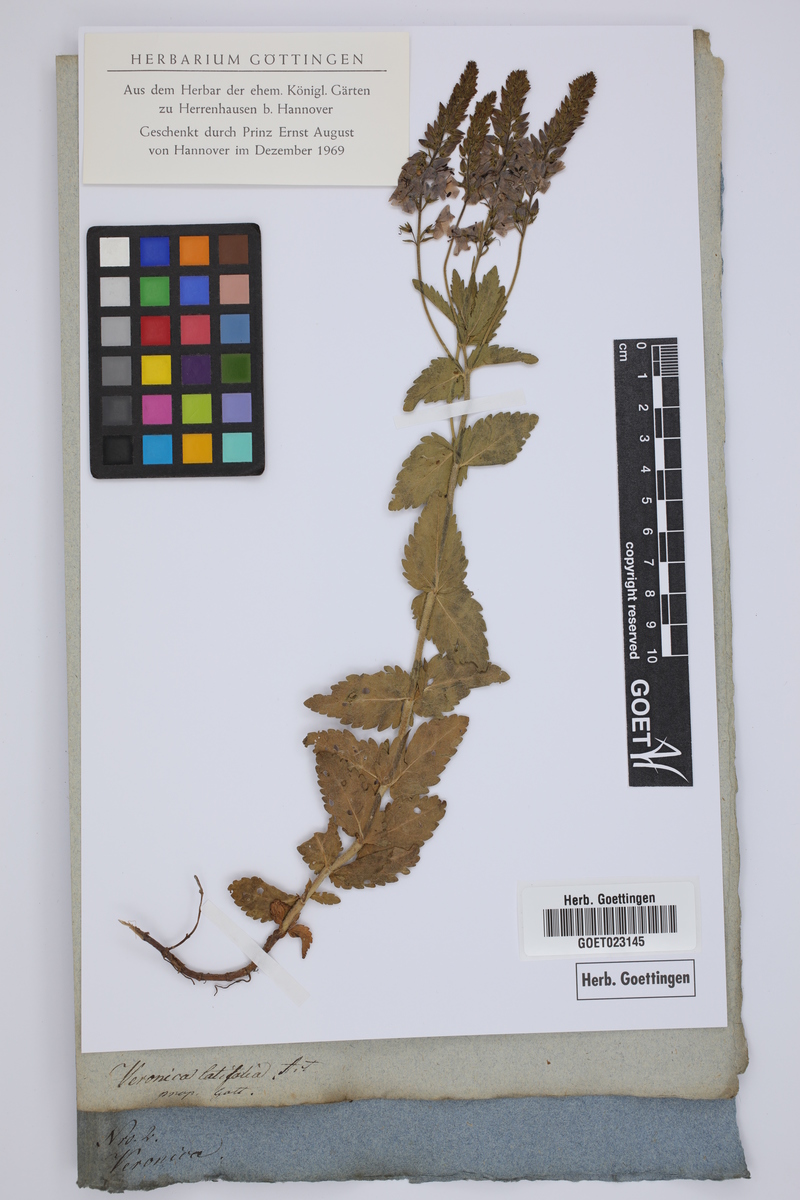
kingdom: Plantae
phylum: Tracheophyta
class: Magnoliopsida
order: Lamiales
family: Plantaginaceae
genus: Veronica
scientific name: Veronica teucrium
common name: Large speedwell
